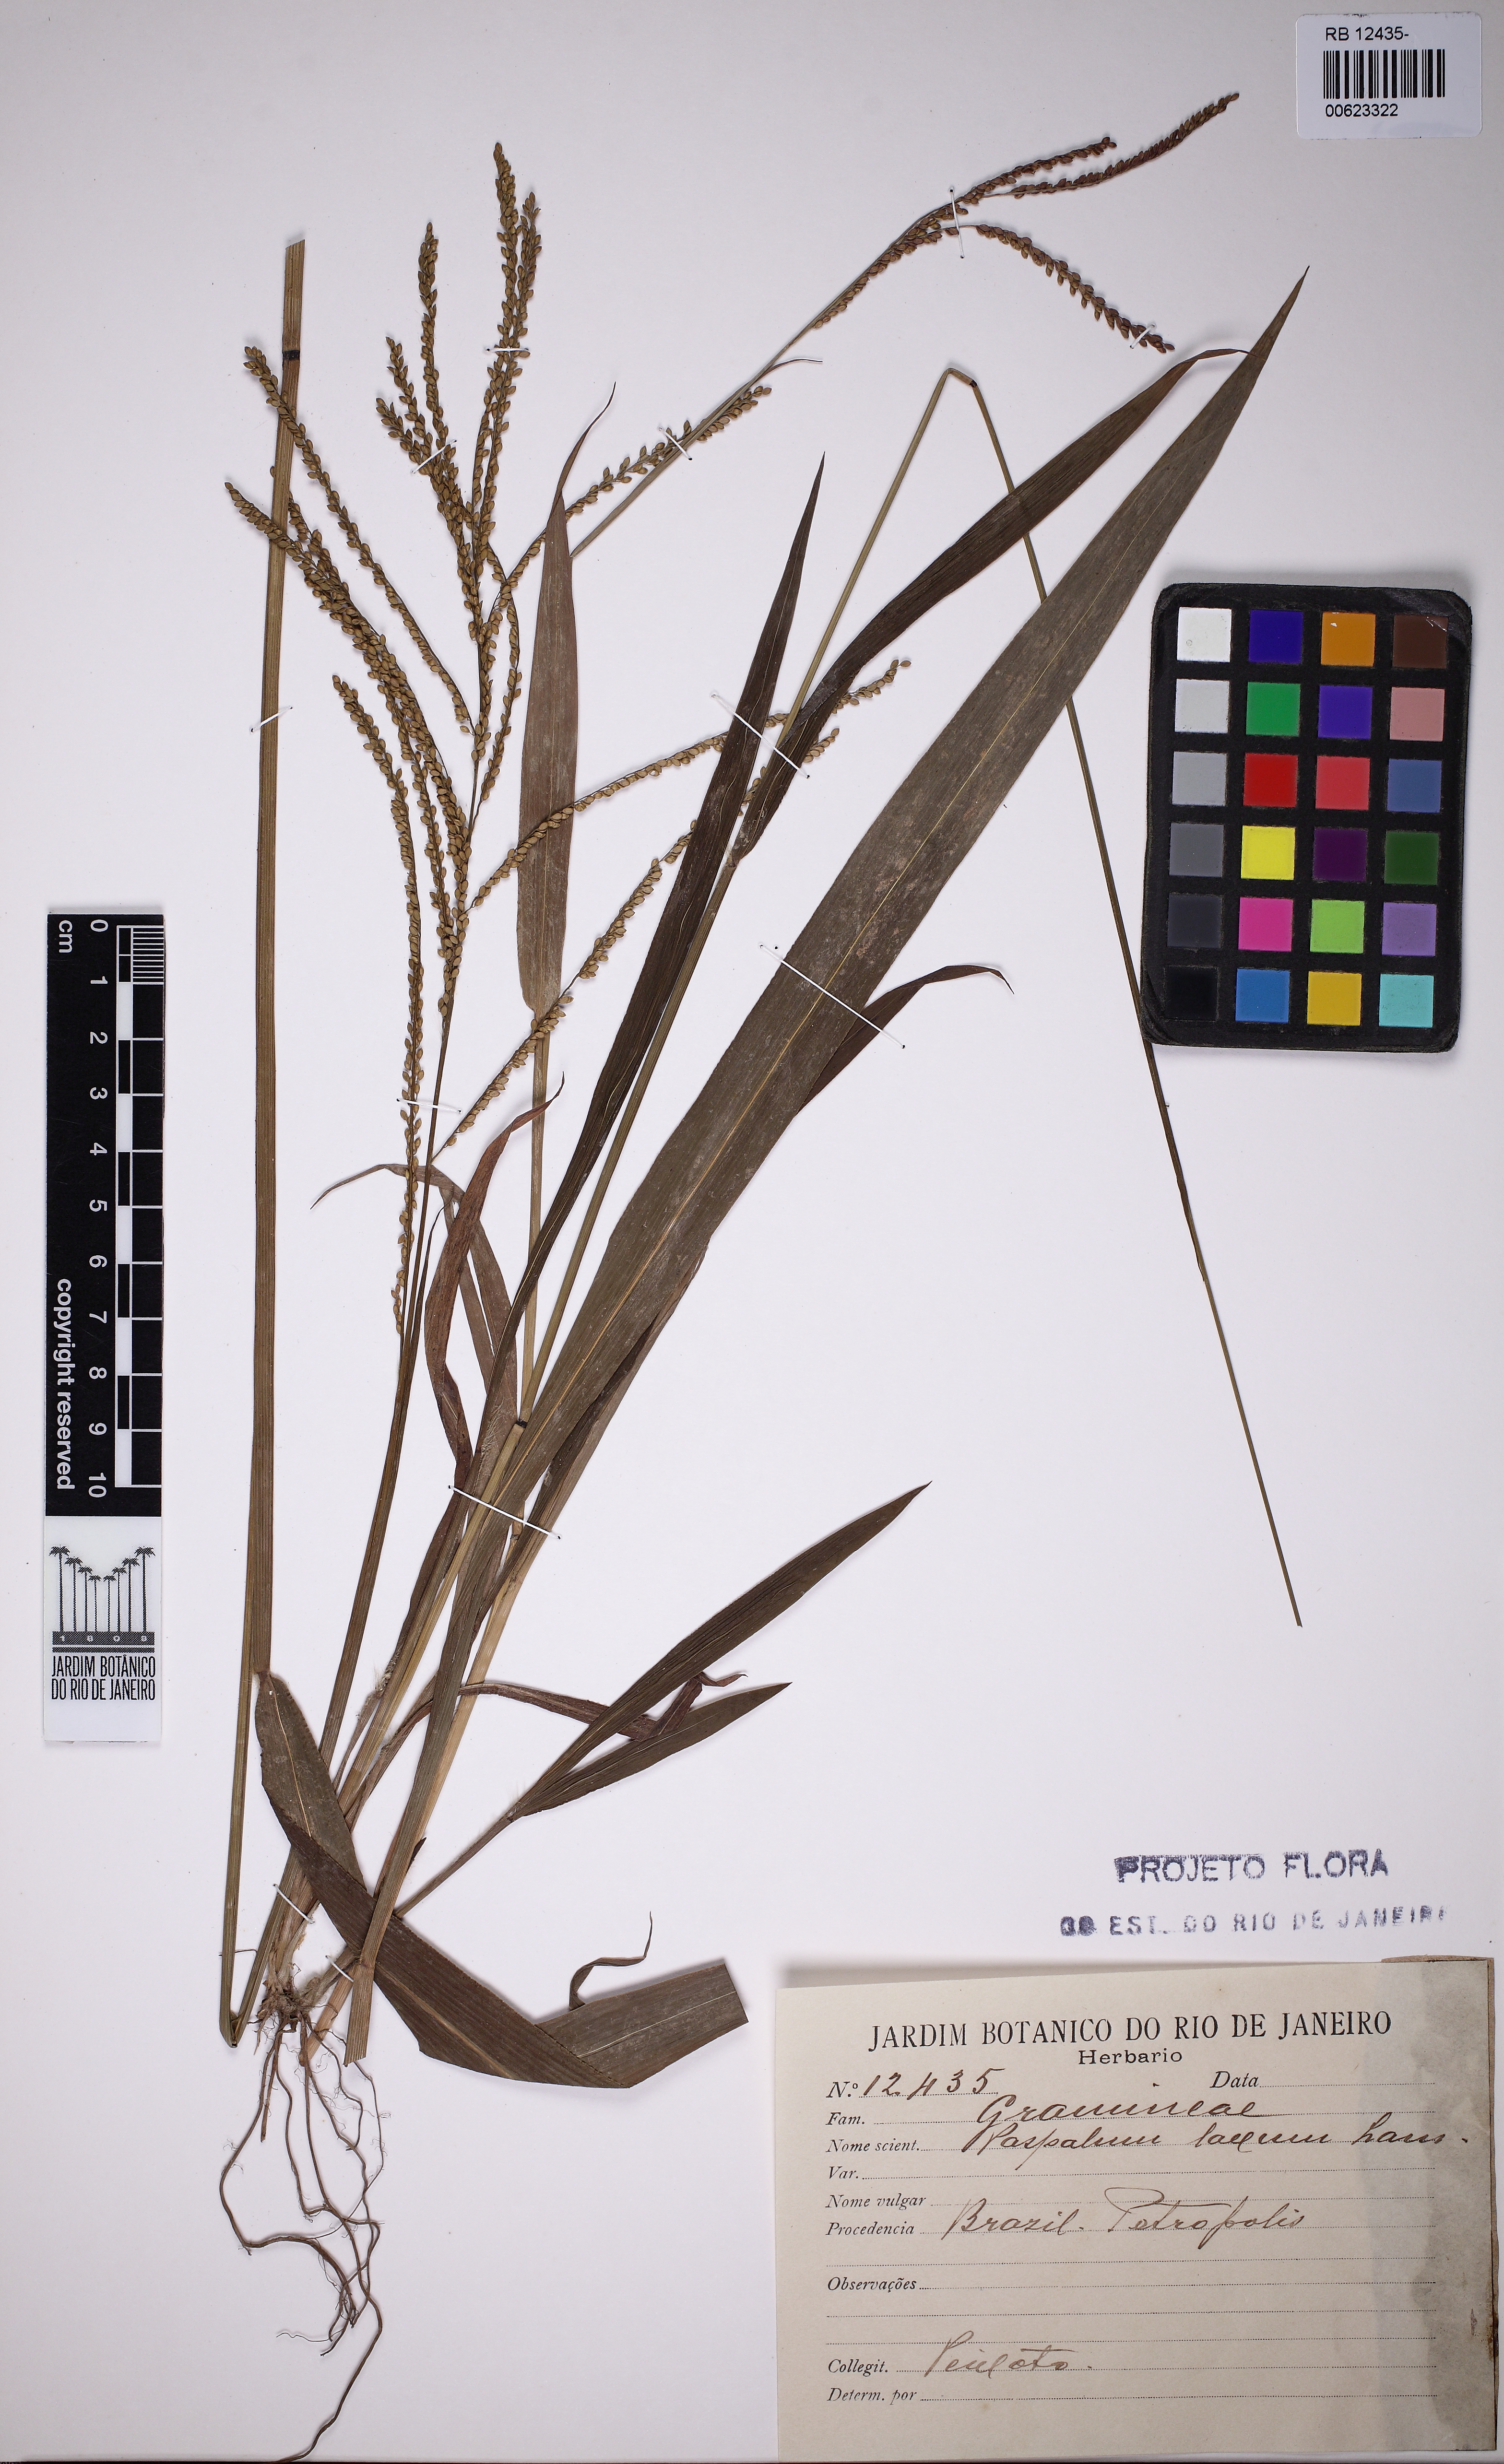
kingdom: Plantae
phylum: Tracheophyta
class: Liliopsida
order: Poales
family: Poaceae
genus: Paspalum
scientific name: Paspalum laxum
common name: Coconut paspalum
